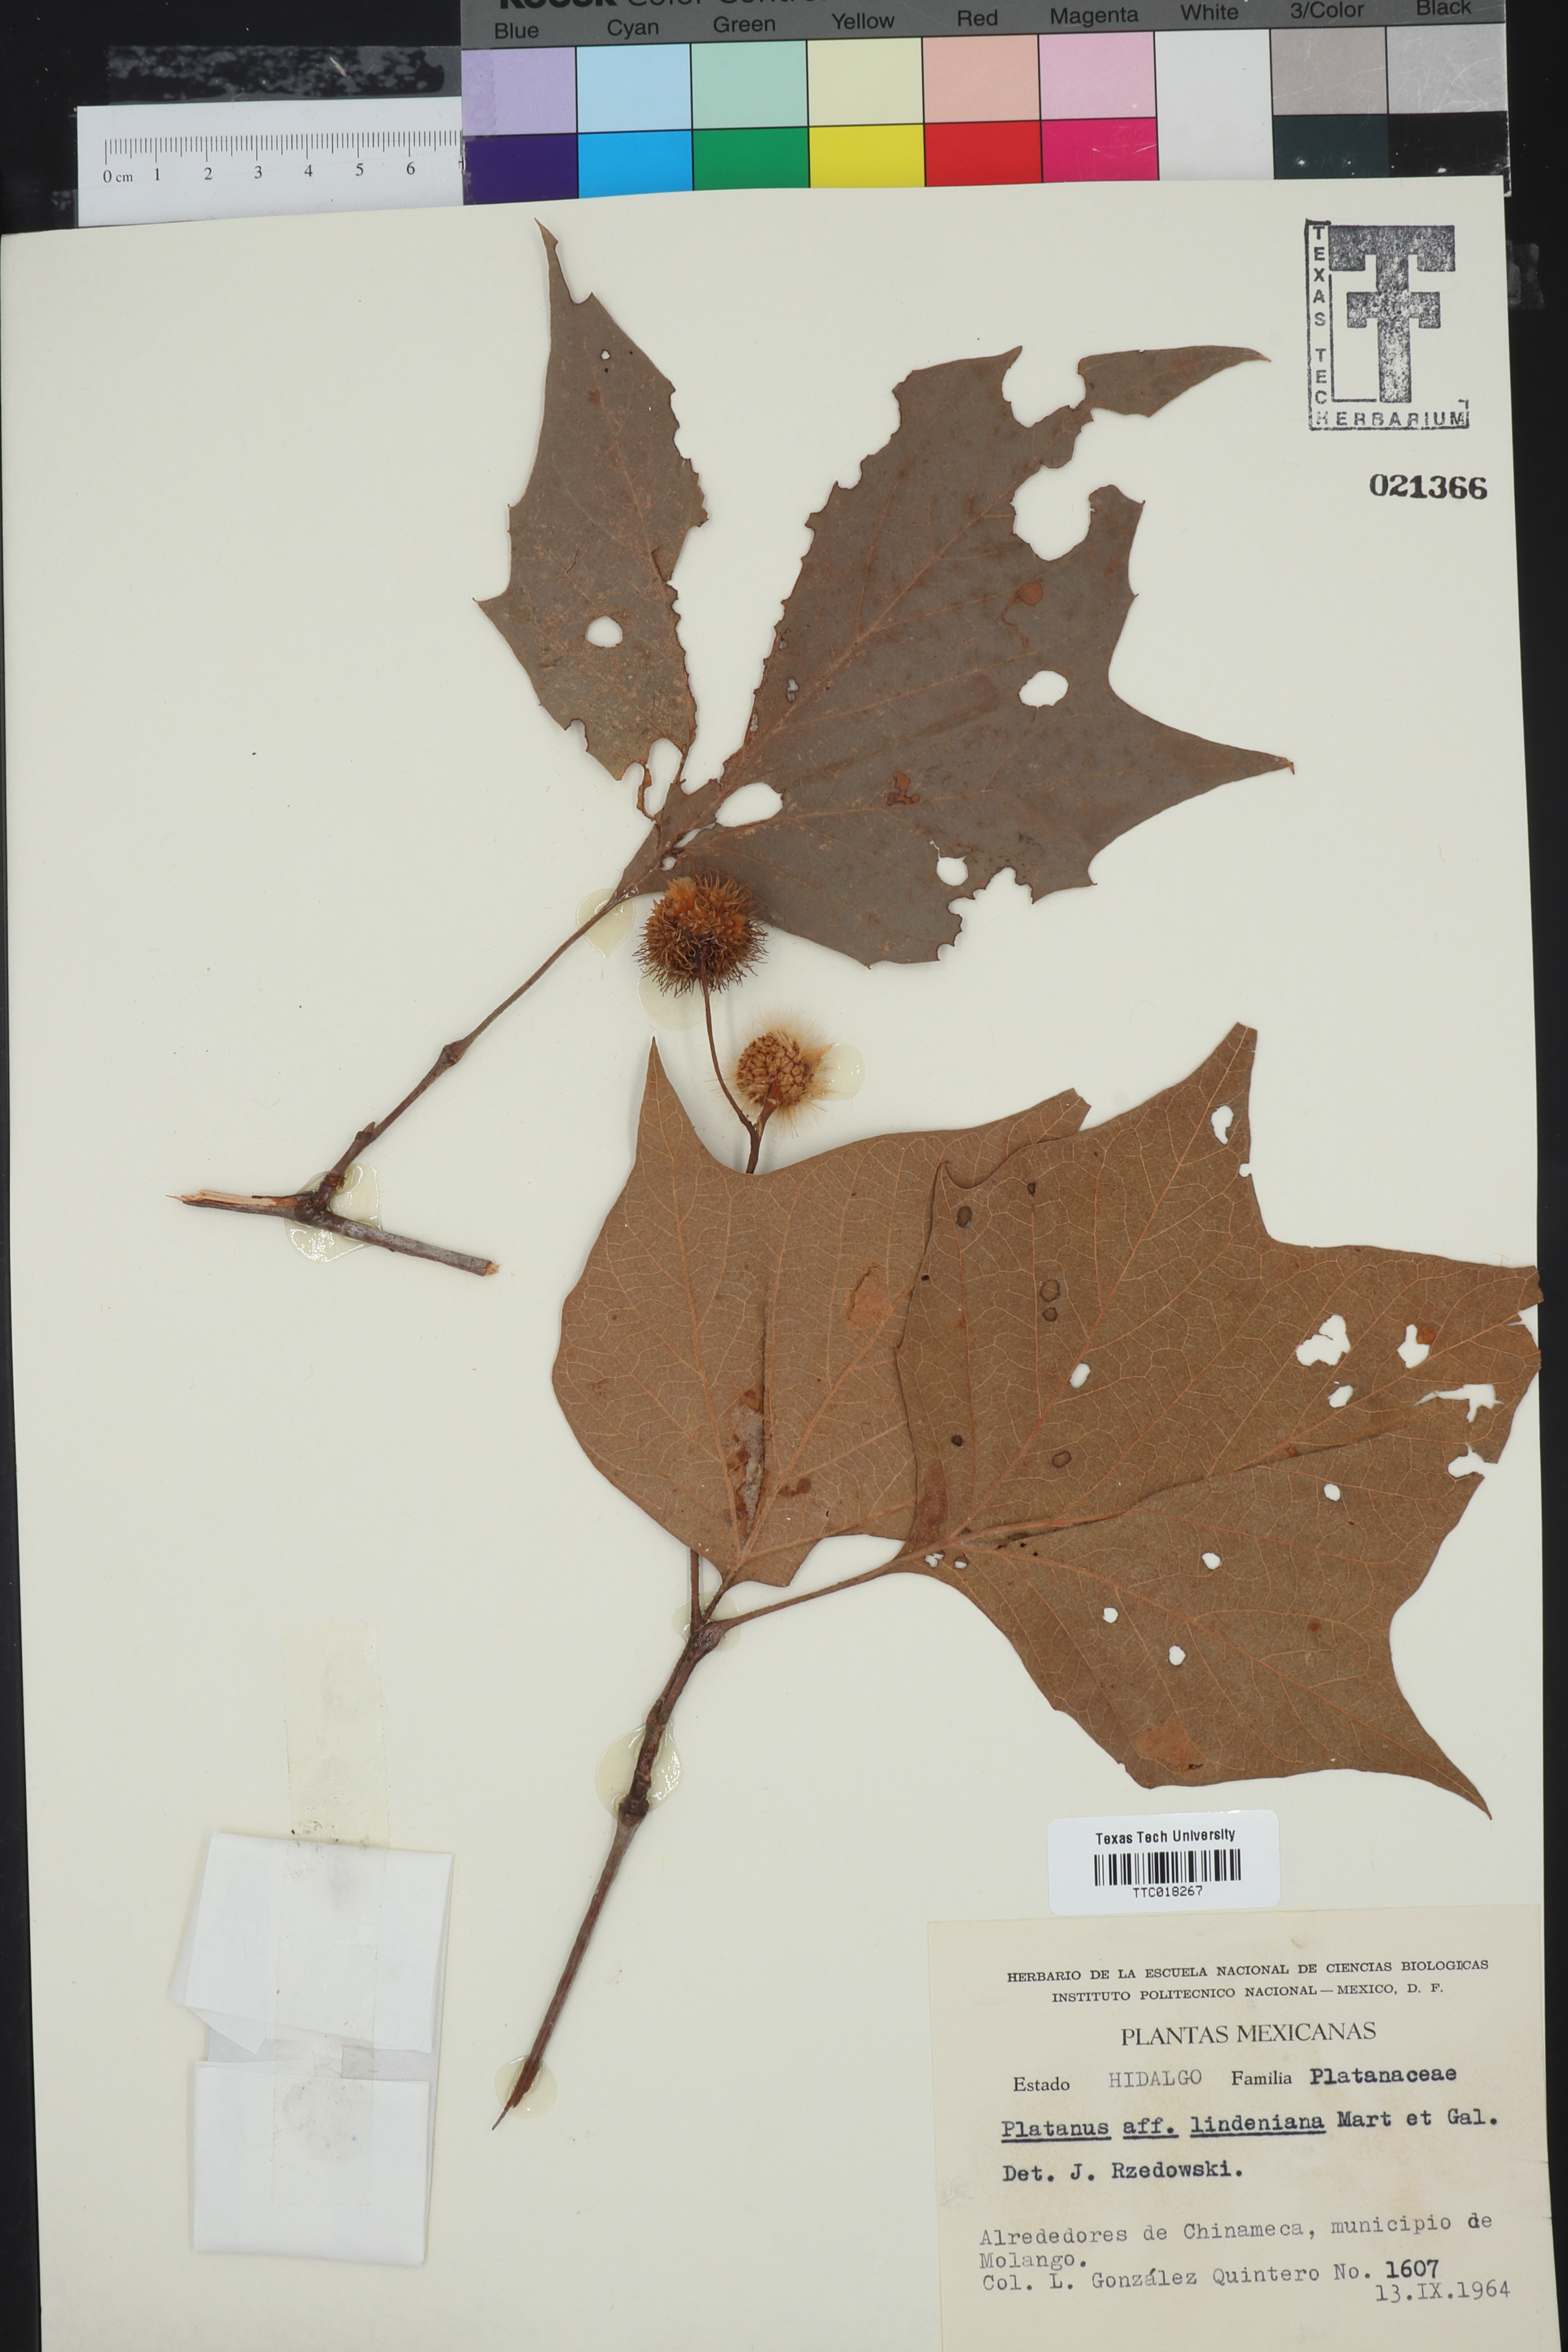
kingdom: Plantae
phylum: Tracheophyta
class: Magnoliopsida
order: Proteales
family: Platanaceae
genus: Platanus
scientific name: Platanus lindeniana
